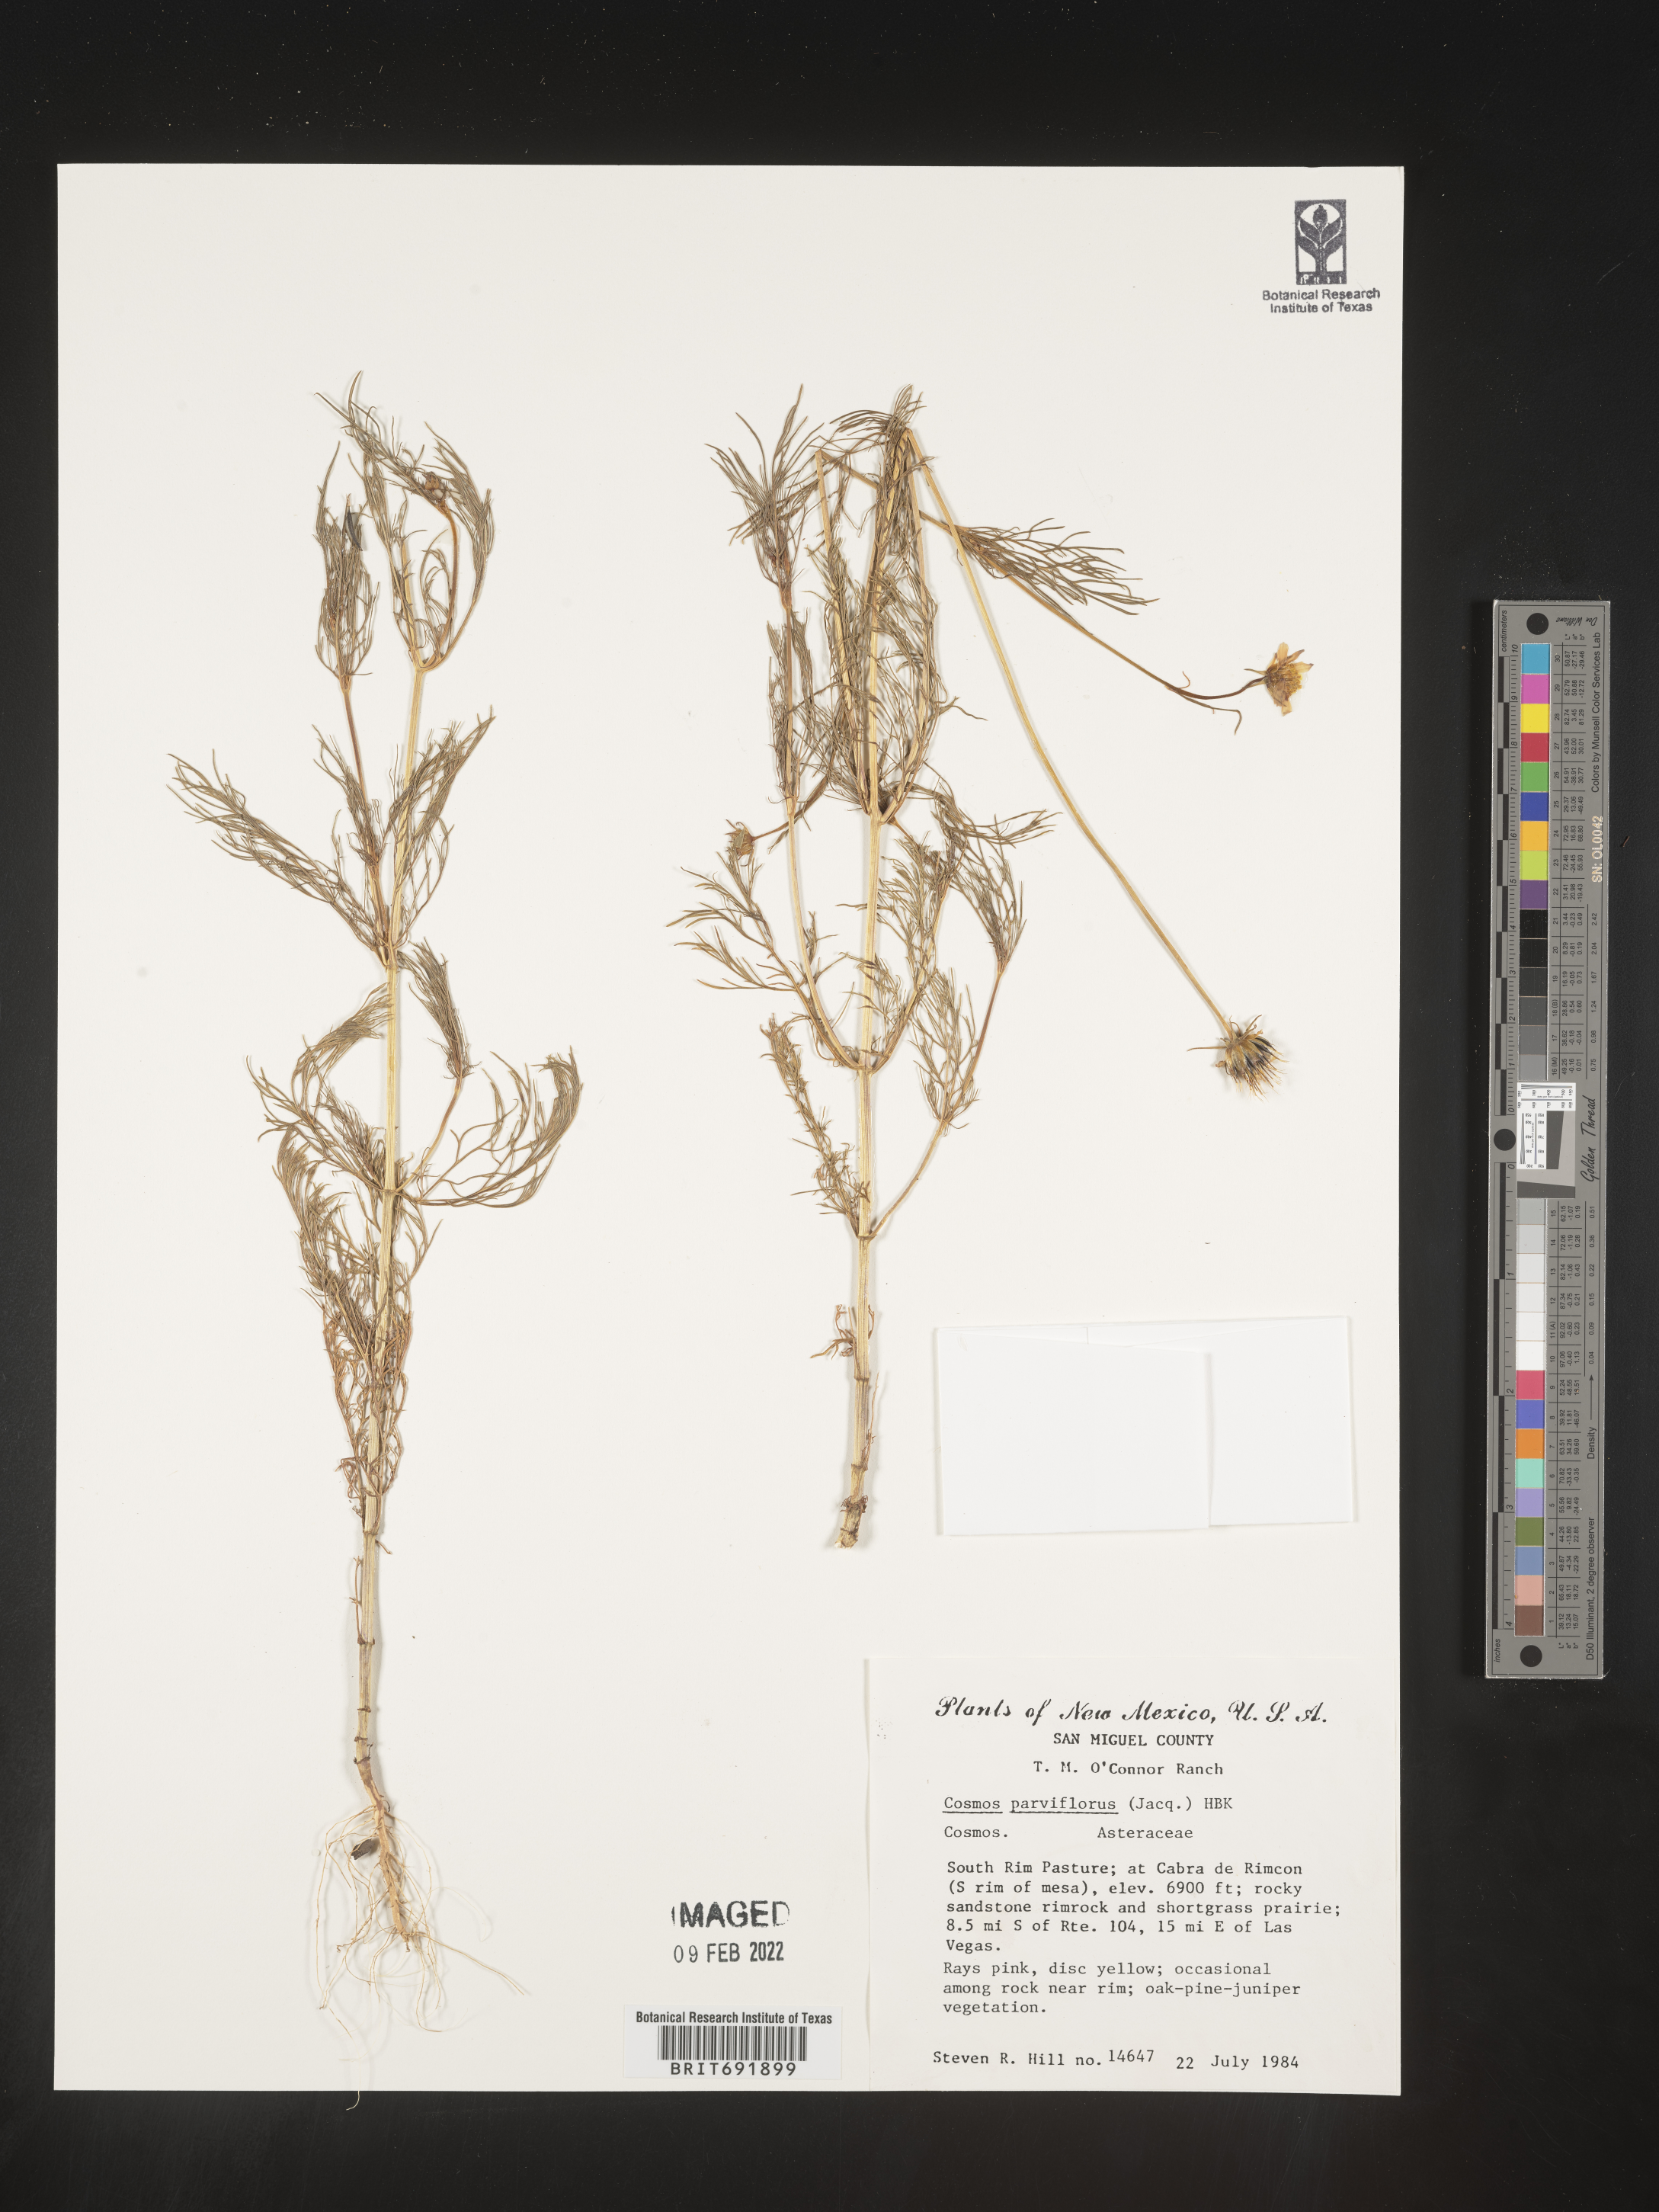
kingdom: Plantae
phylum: Tracheophyta
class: Magnoliopsida
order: Asterales
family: Asteraceae
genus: Cosmos
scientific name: Cosmos
